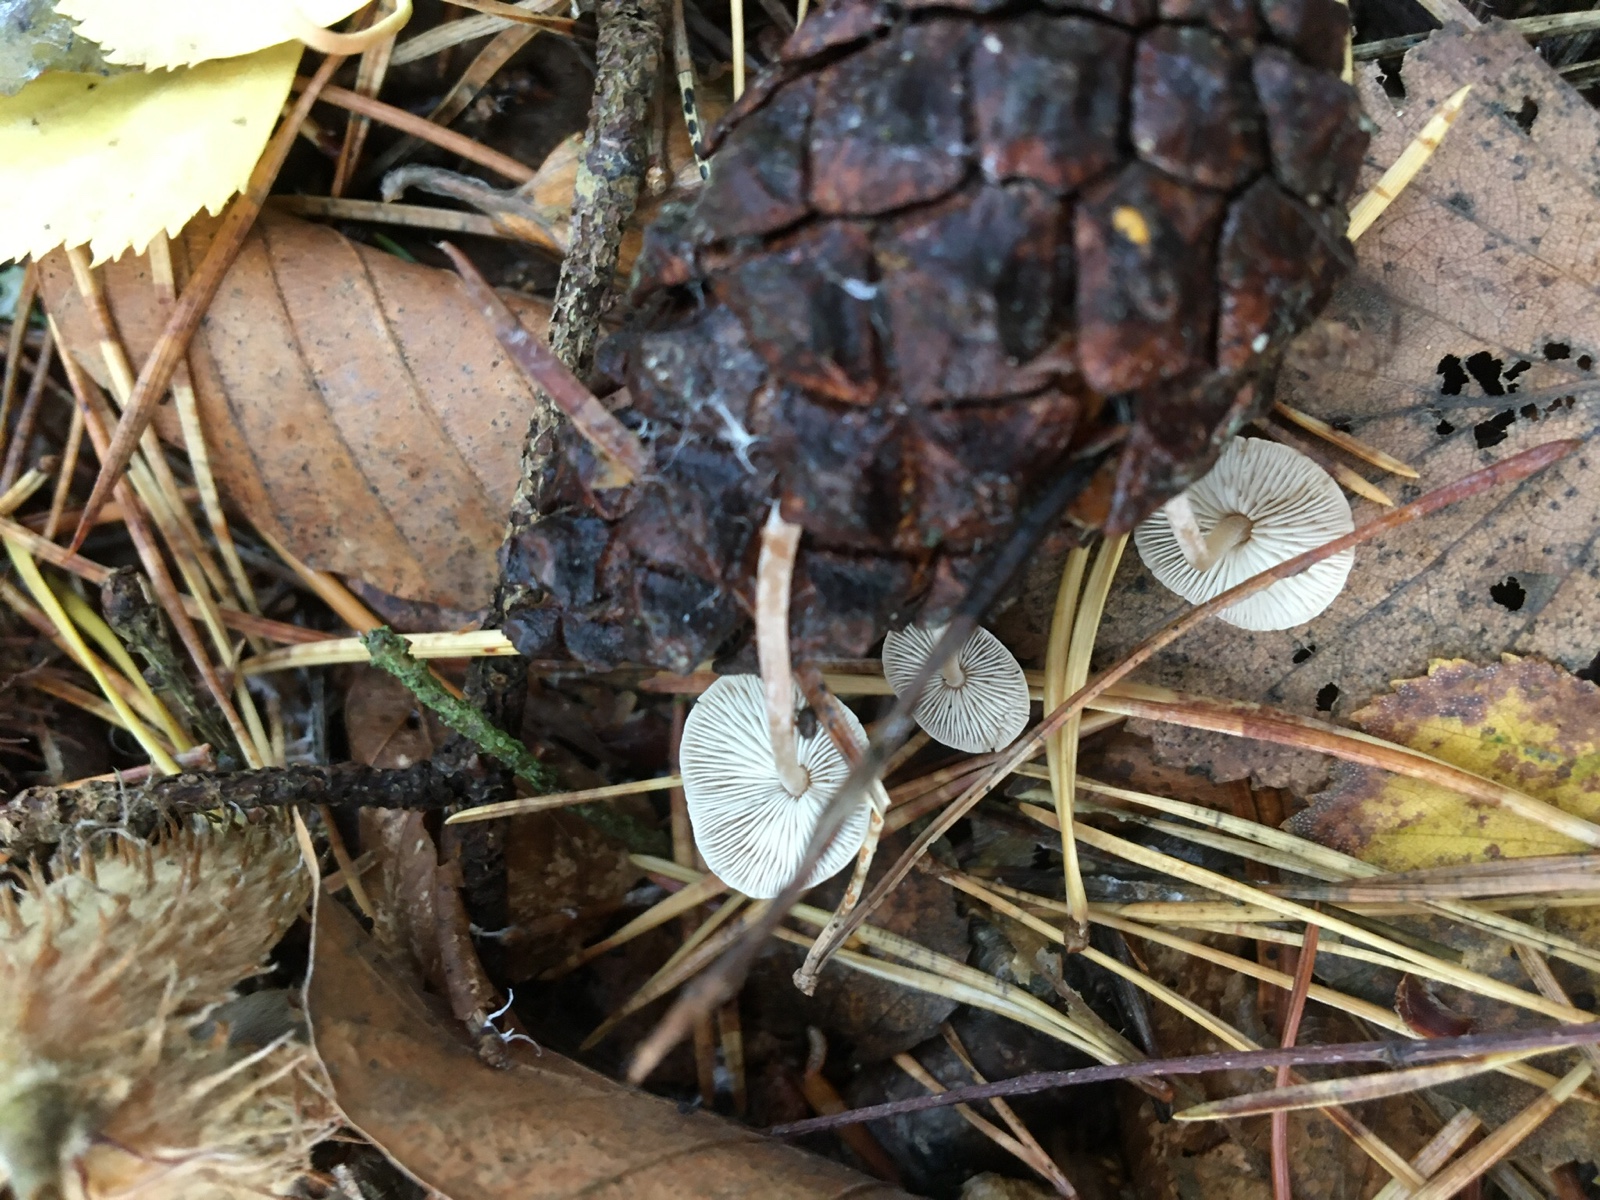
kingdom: Fungi
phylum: Basidiomycota
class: Agaricomycetes
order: Agaricales
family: Marasmiaceae
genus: Baeospora
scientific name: Baeospora myosura
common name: koglebruskhat
